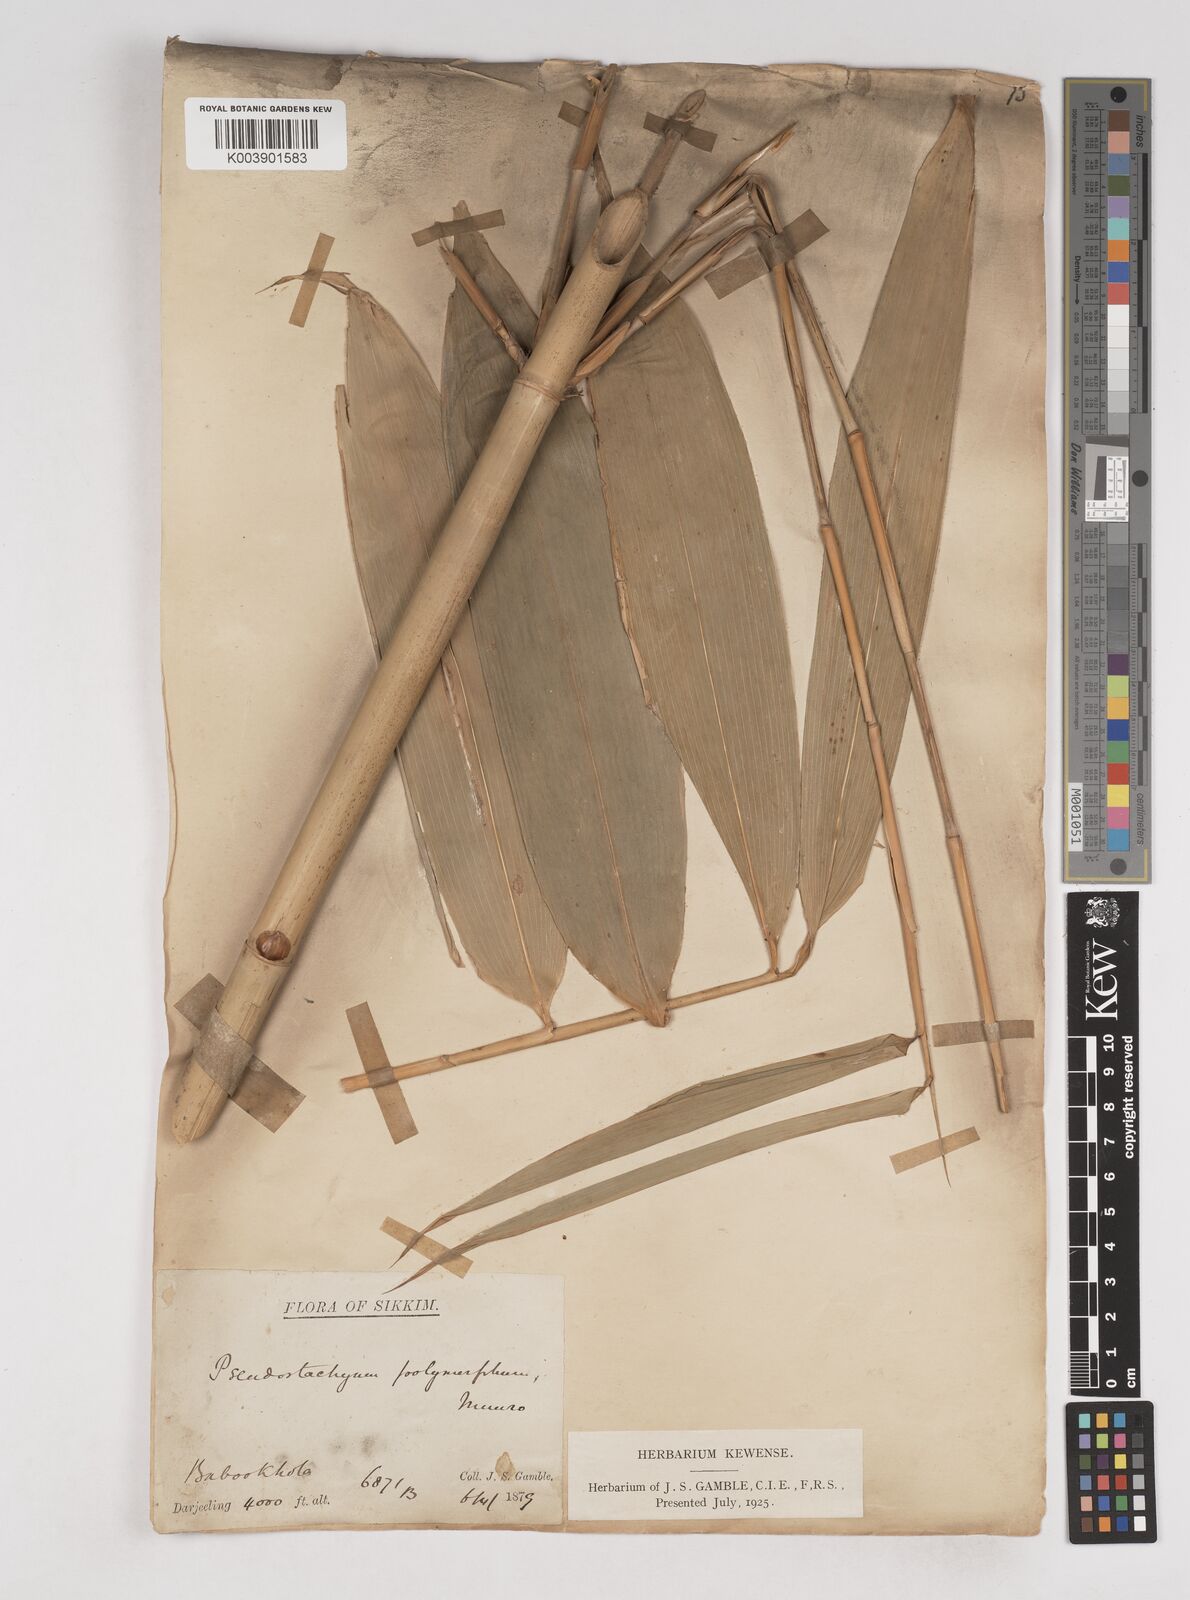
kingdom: Plantae
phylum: Tracheophyta
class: Liliopsida
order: Poales
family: Poaceae
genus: Pseudostachyum
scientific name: Pseudostachyum polymorphum
